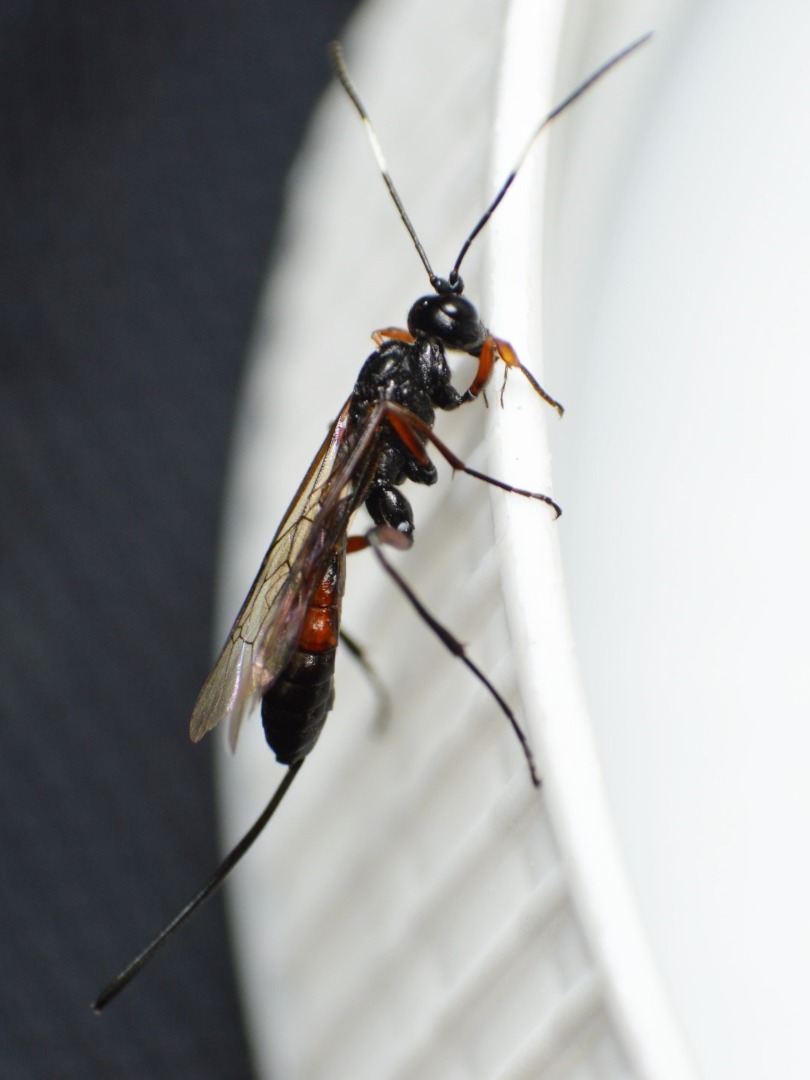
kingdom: Animalia
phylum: Arthropoda
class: Insecta
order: Hymenoptera
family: Ichneumonidae
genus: Echthrus
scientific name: Echthrus reluctator
